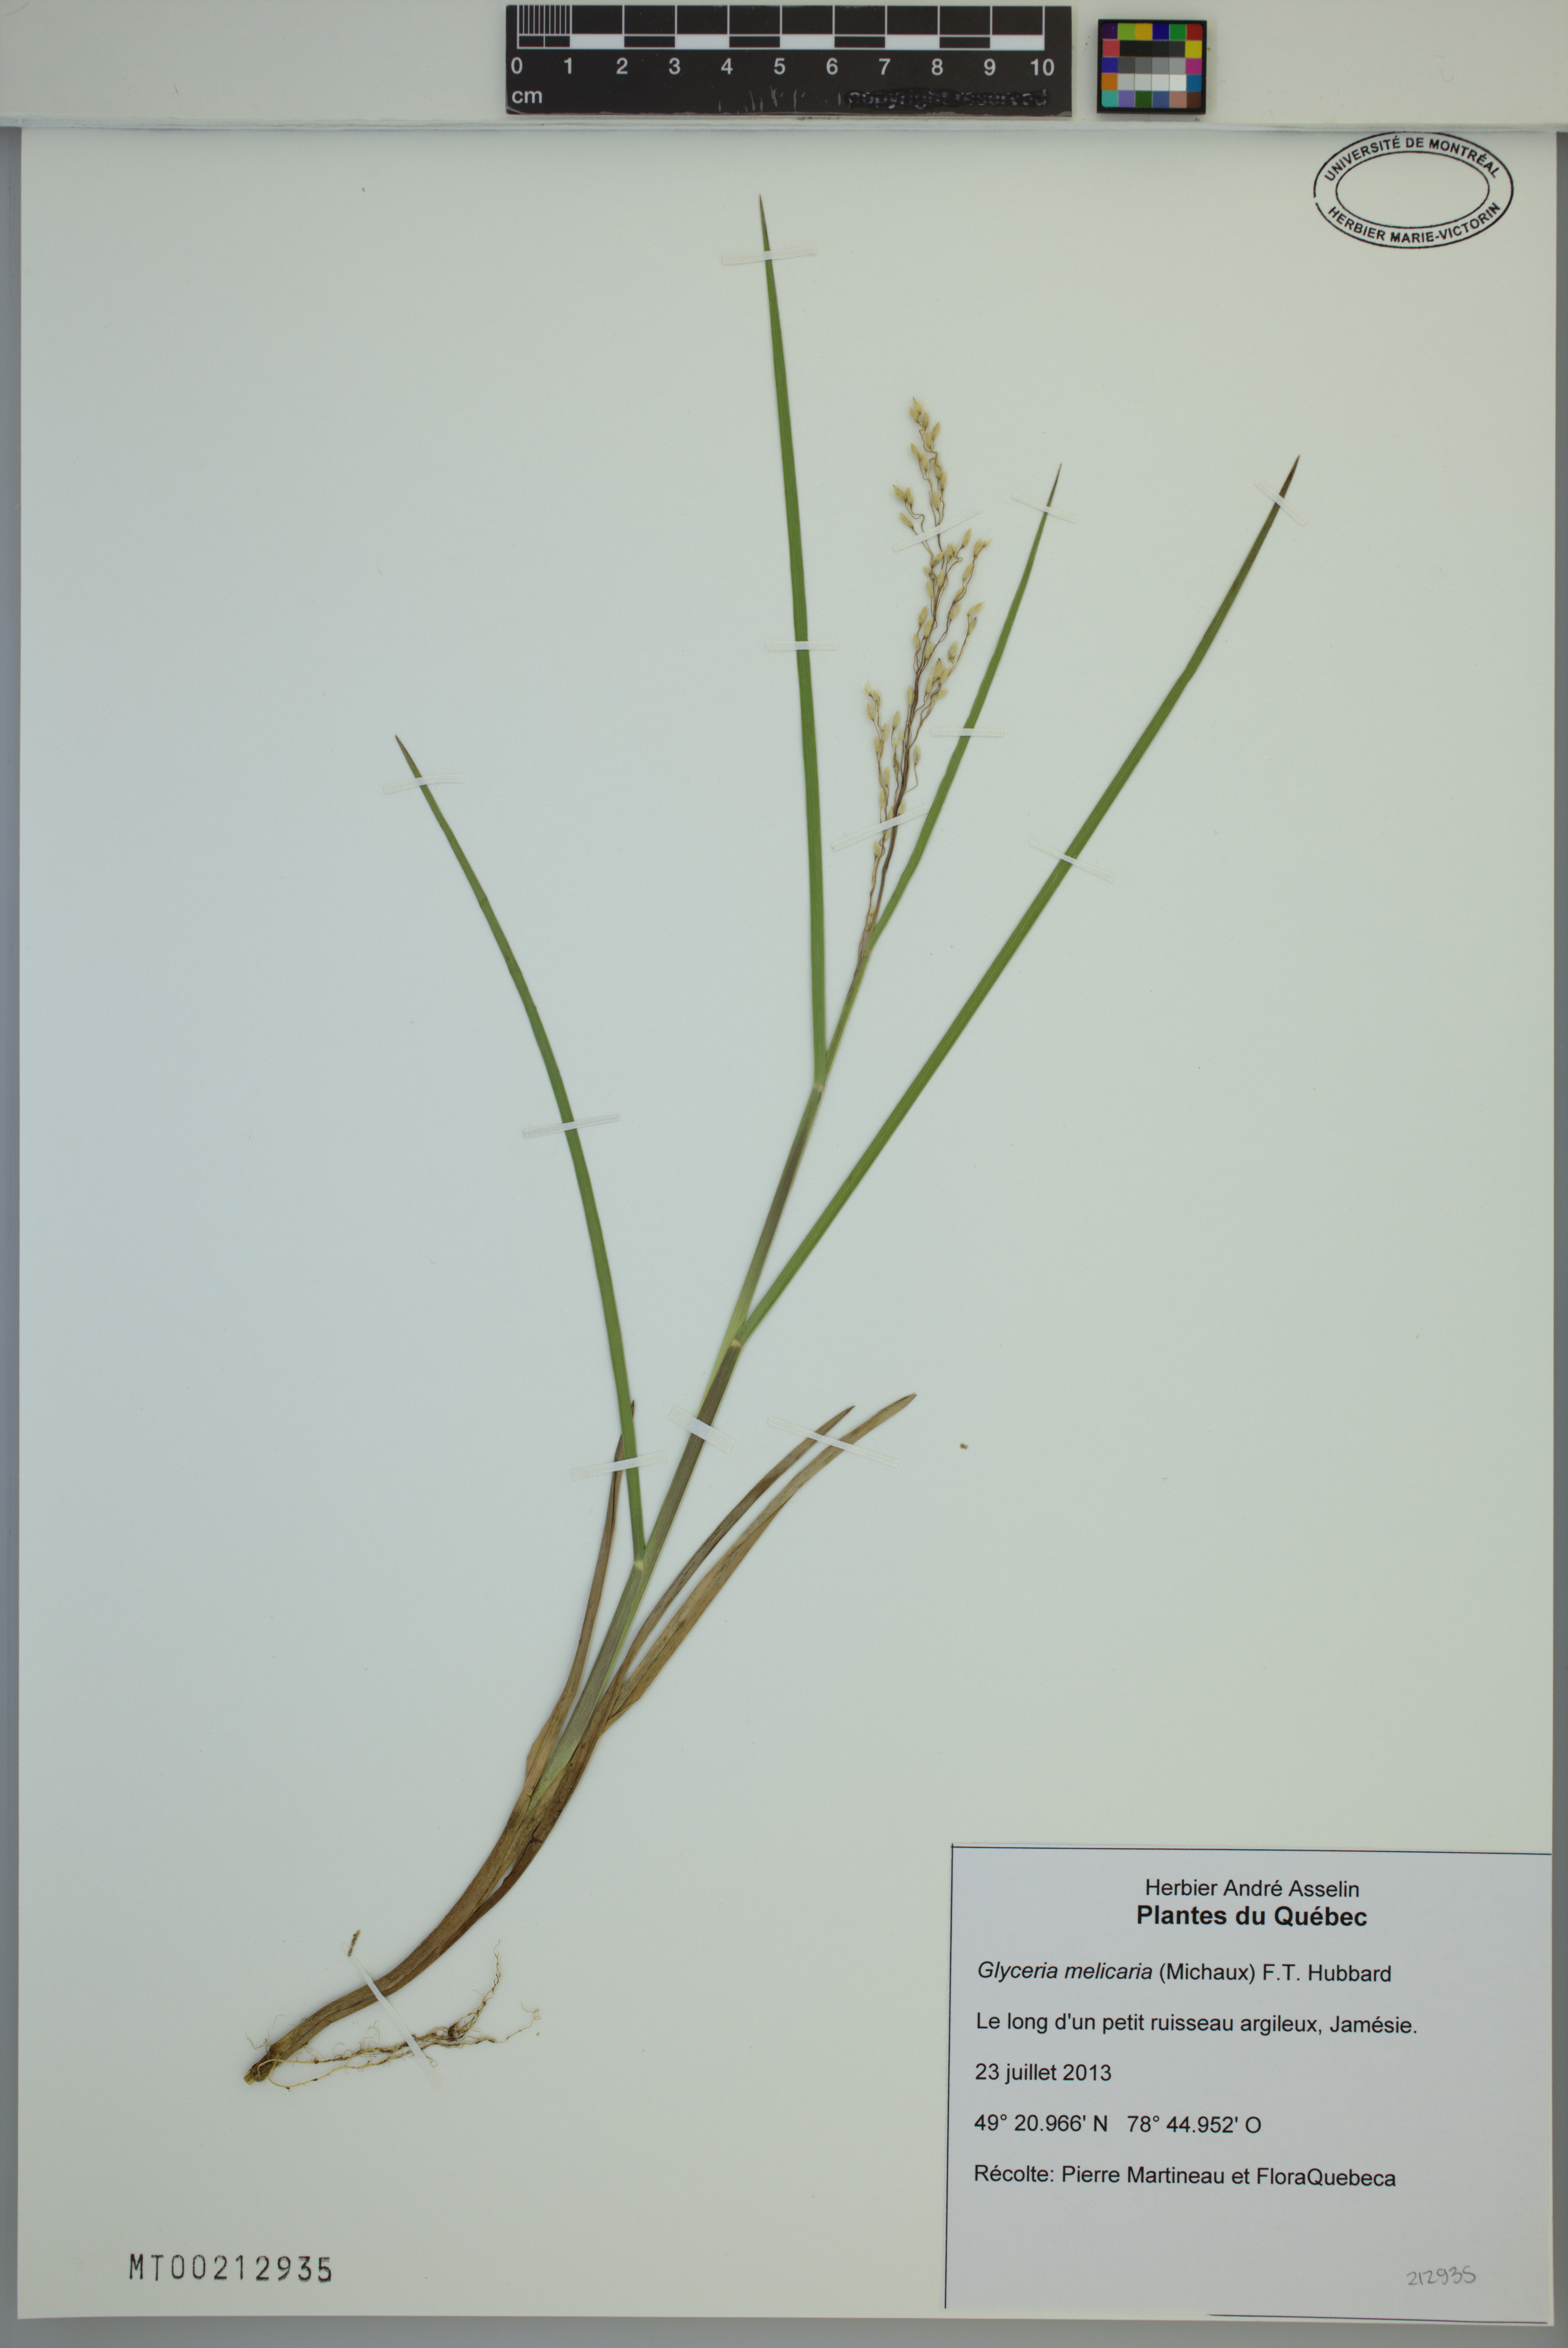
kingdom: Plantae
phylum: Tracheophyta
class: Liliopsida
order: Poales
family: Poaceae
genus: Glyceria
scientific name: Glyceria melicaria
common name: Long mannagrass
